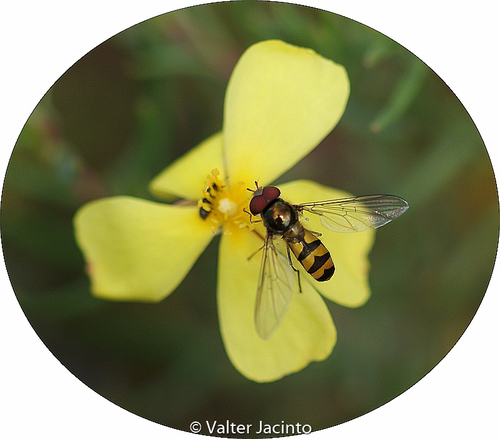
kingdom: Animalia
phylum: Arthropoda
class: Insecta
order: Diptera
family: Syrphidae
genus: Meliscaeva
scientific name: Meliscaeva auricollis
